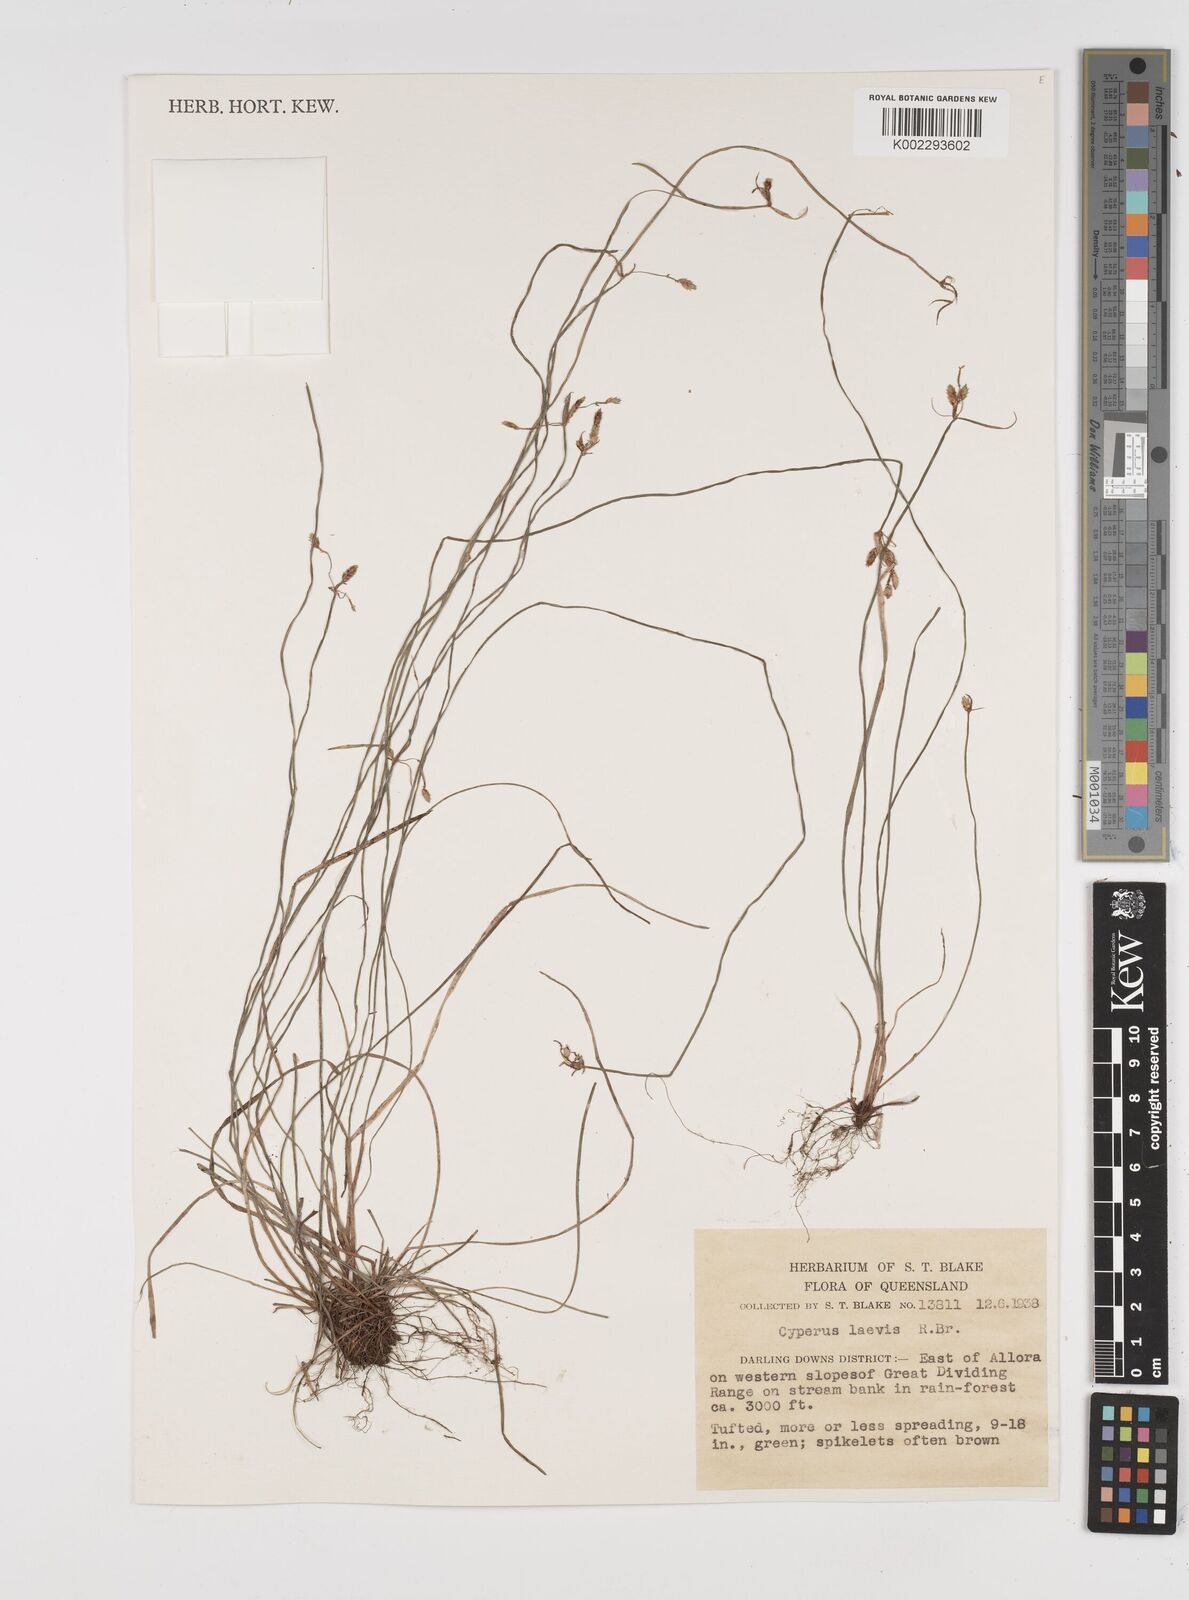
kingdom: Plantae
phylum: Tracheophyta
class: Liliopsida
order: Poales
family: Cyperaceae
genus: Cyperus
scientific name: Cyperus laevis
